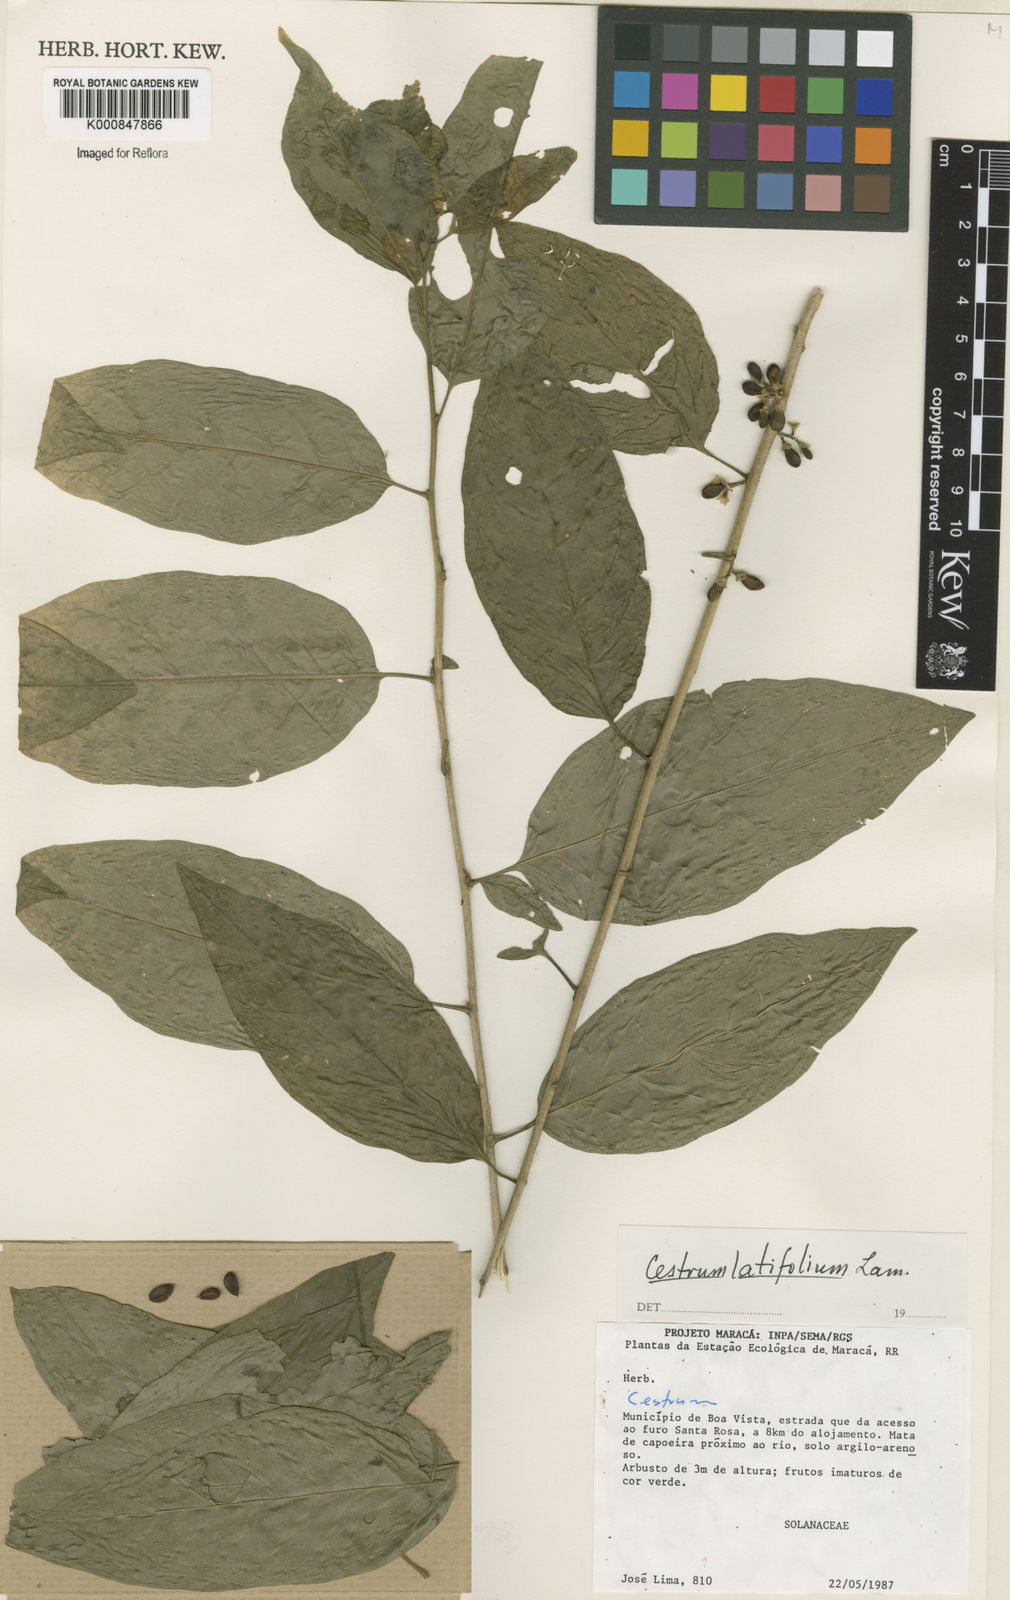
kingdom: Plantae
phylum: Tracheophyta
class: Magnoliopsida
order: Solanales
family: Solanaceae
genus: Cestrum
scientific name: Cestrum latifolium
